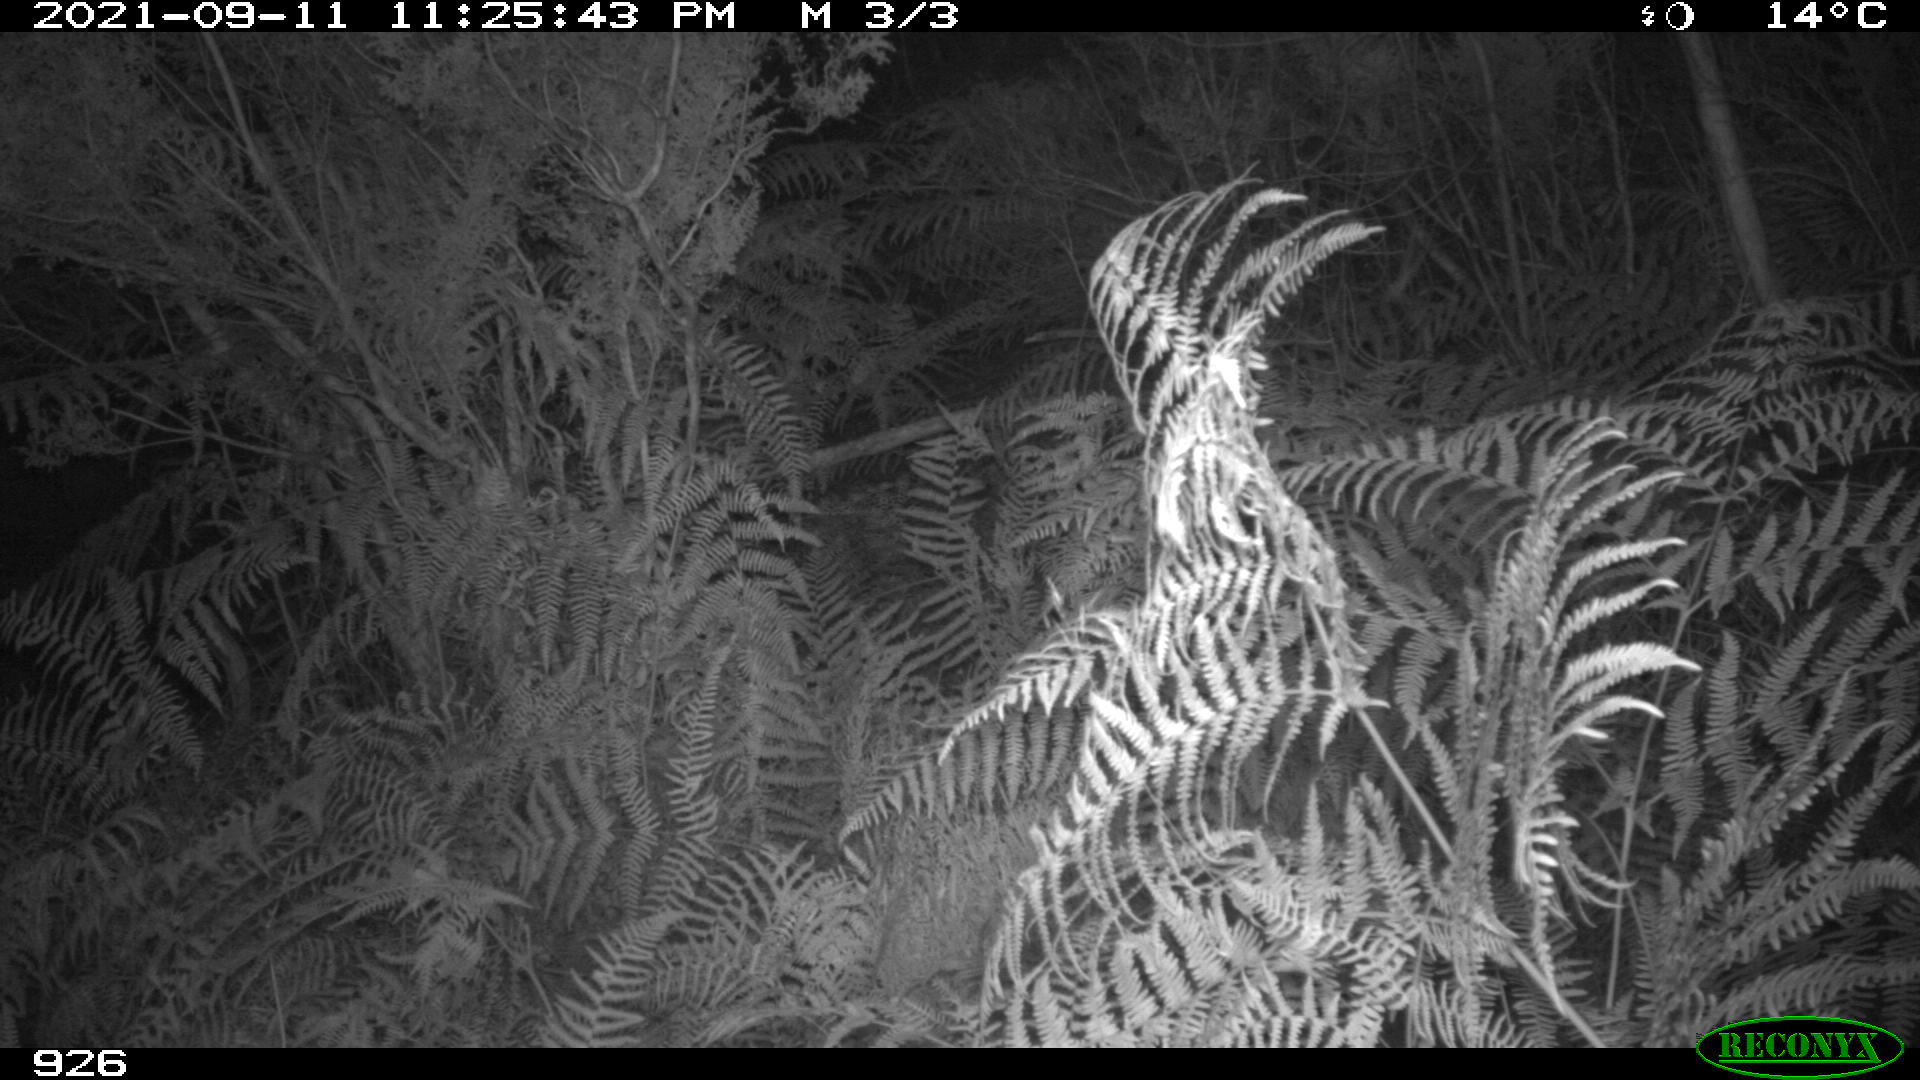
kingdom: Animalia
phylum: Chordata
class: Mammalia
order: Artiodactyla
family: Bovidae
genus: Bos
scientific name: Bos taurus
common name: Domesticated cattle
